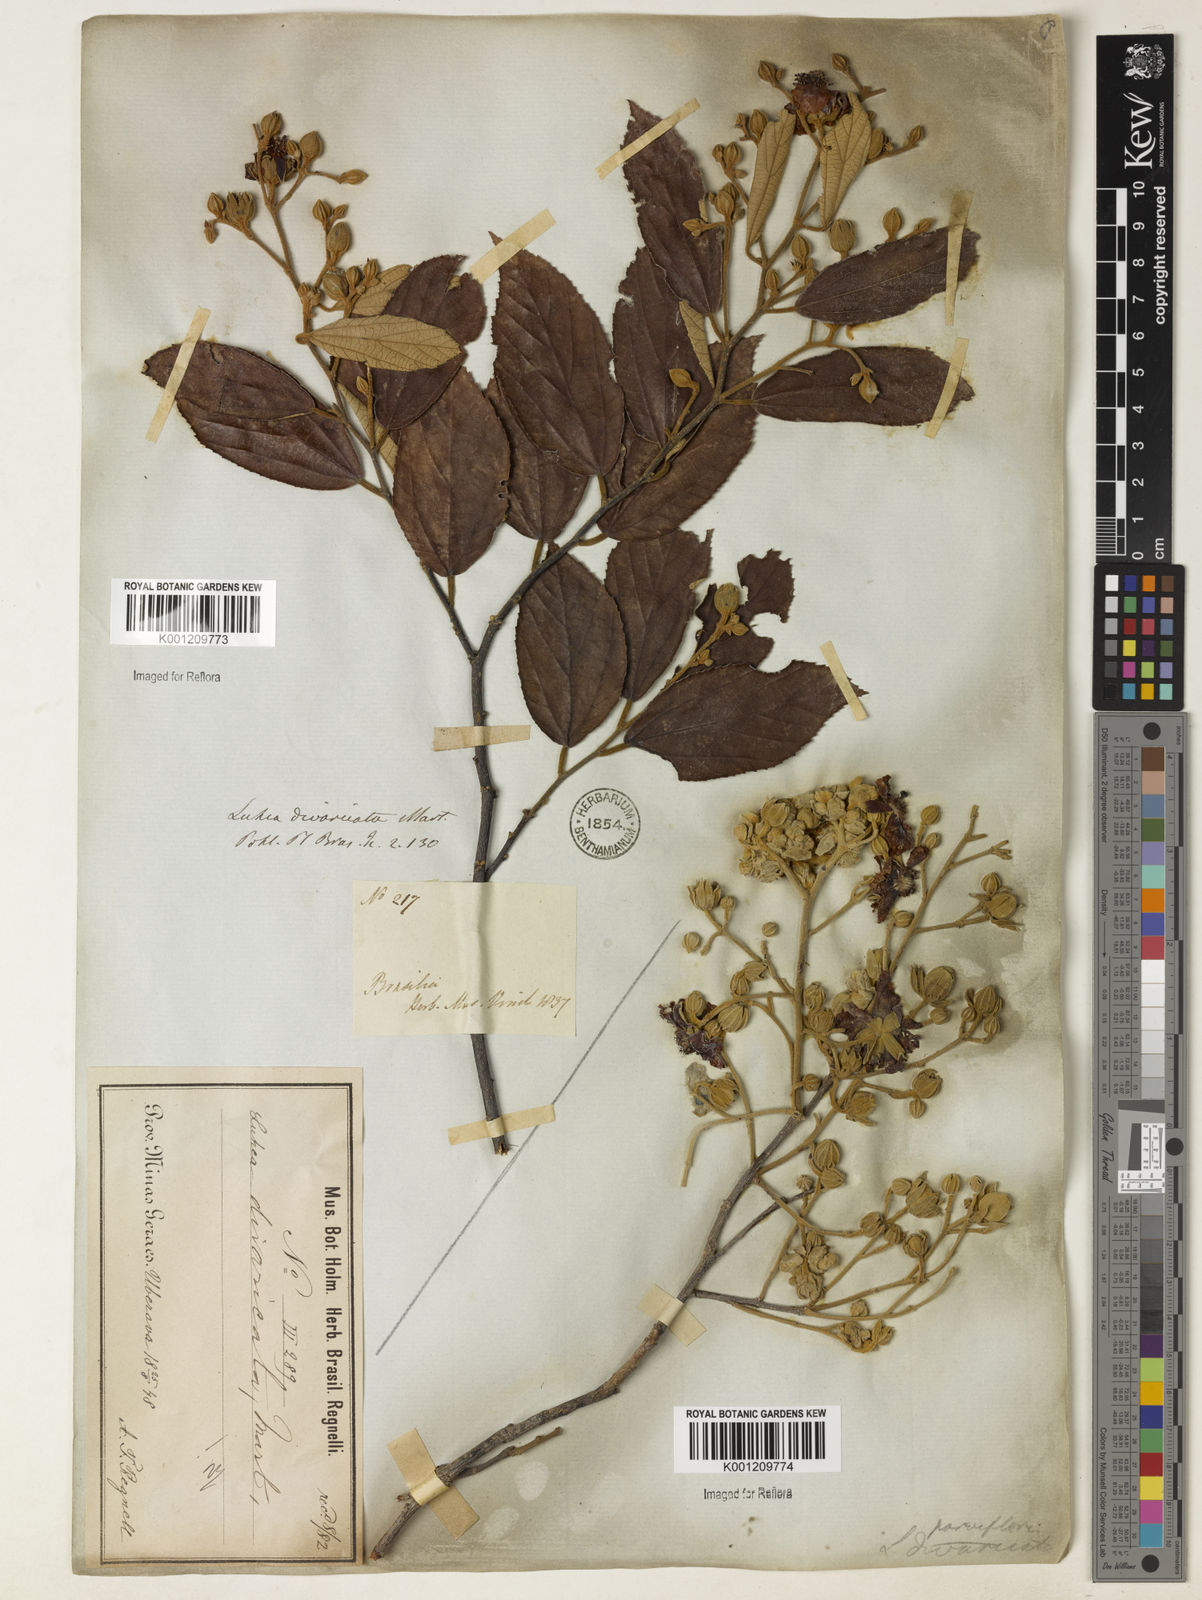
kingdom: Plantae
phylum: Tracheophyta
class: Magnoliopsida
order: Malvales
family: Malvaceae
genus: Luehea
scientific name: Luehea divaricata
